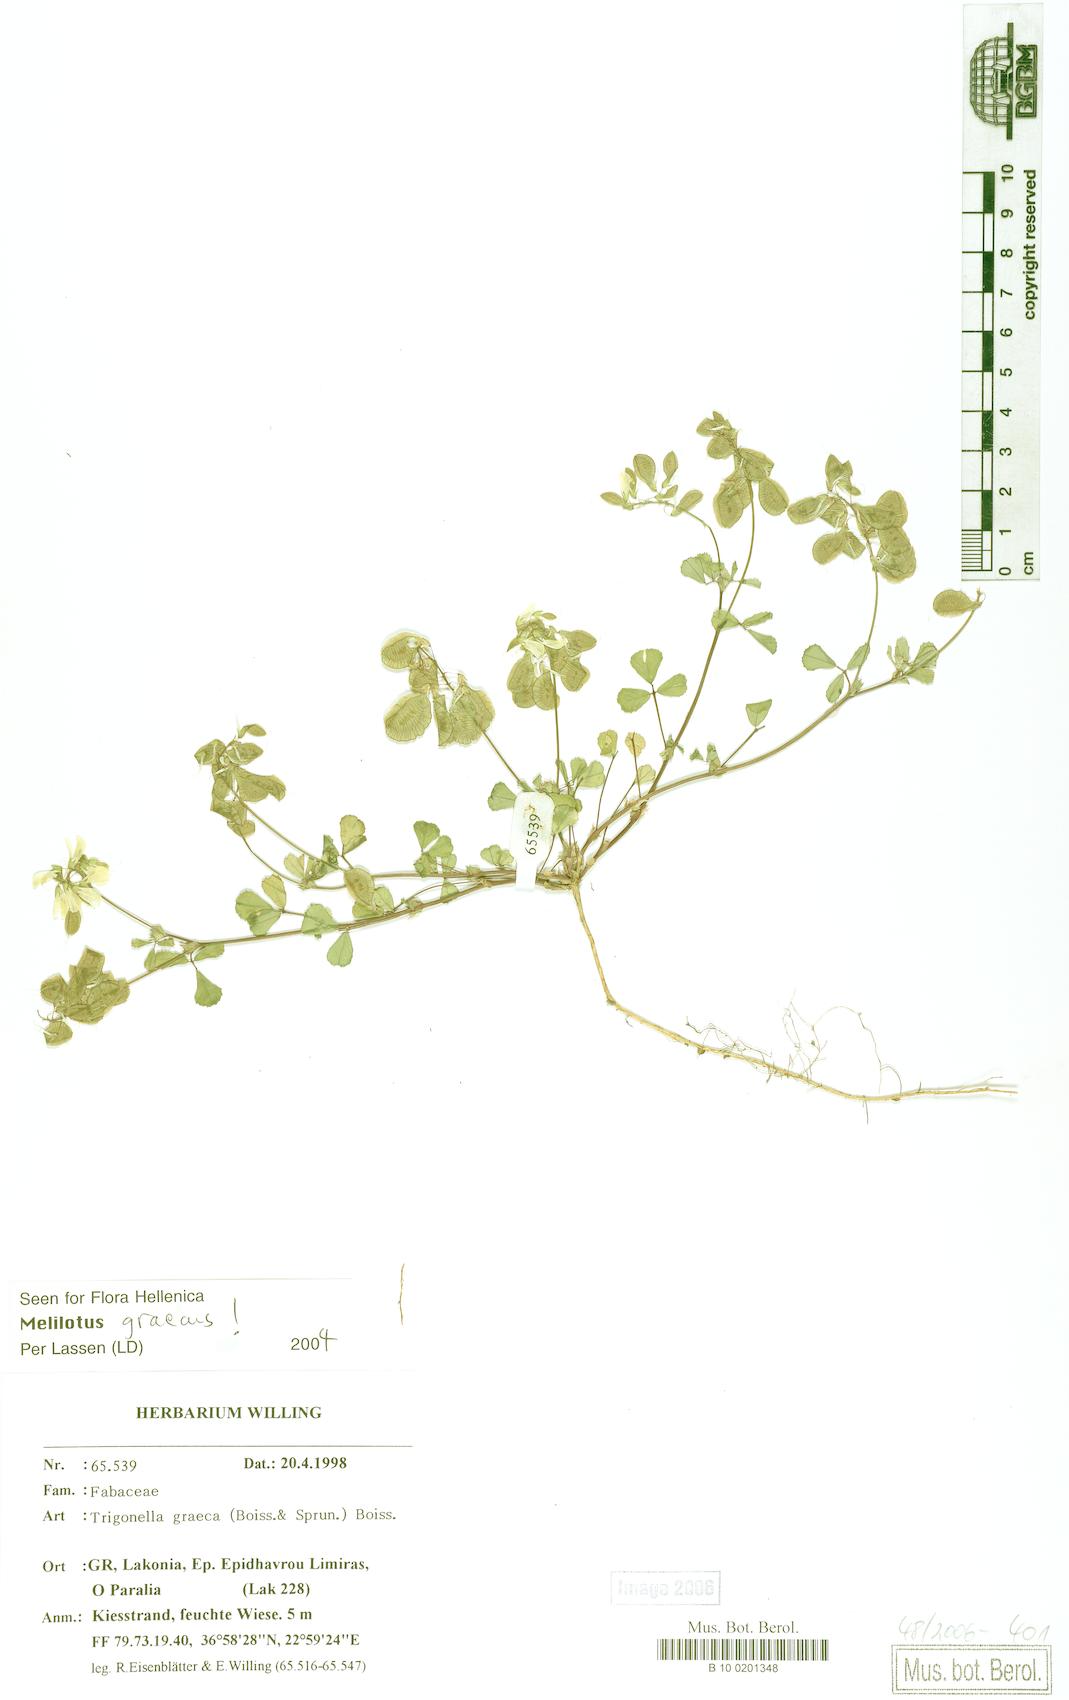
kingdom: Plantae
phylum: Tracheophyta
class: Magnoliopsida
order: Fabales
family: Fabaceae
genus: Trigonella
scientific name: Trigonella graeca
